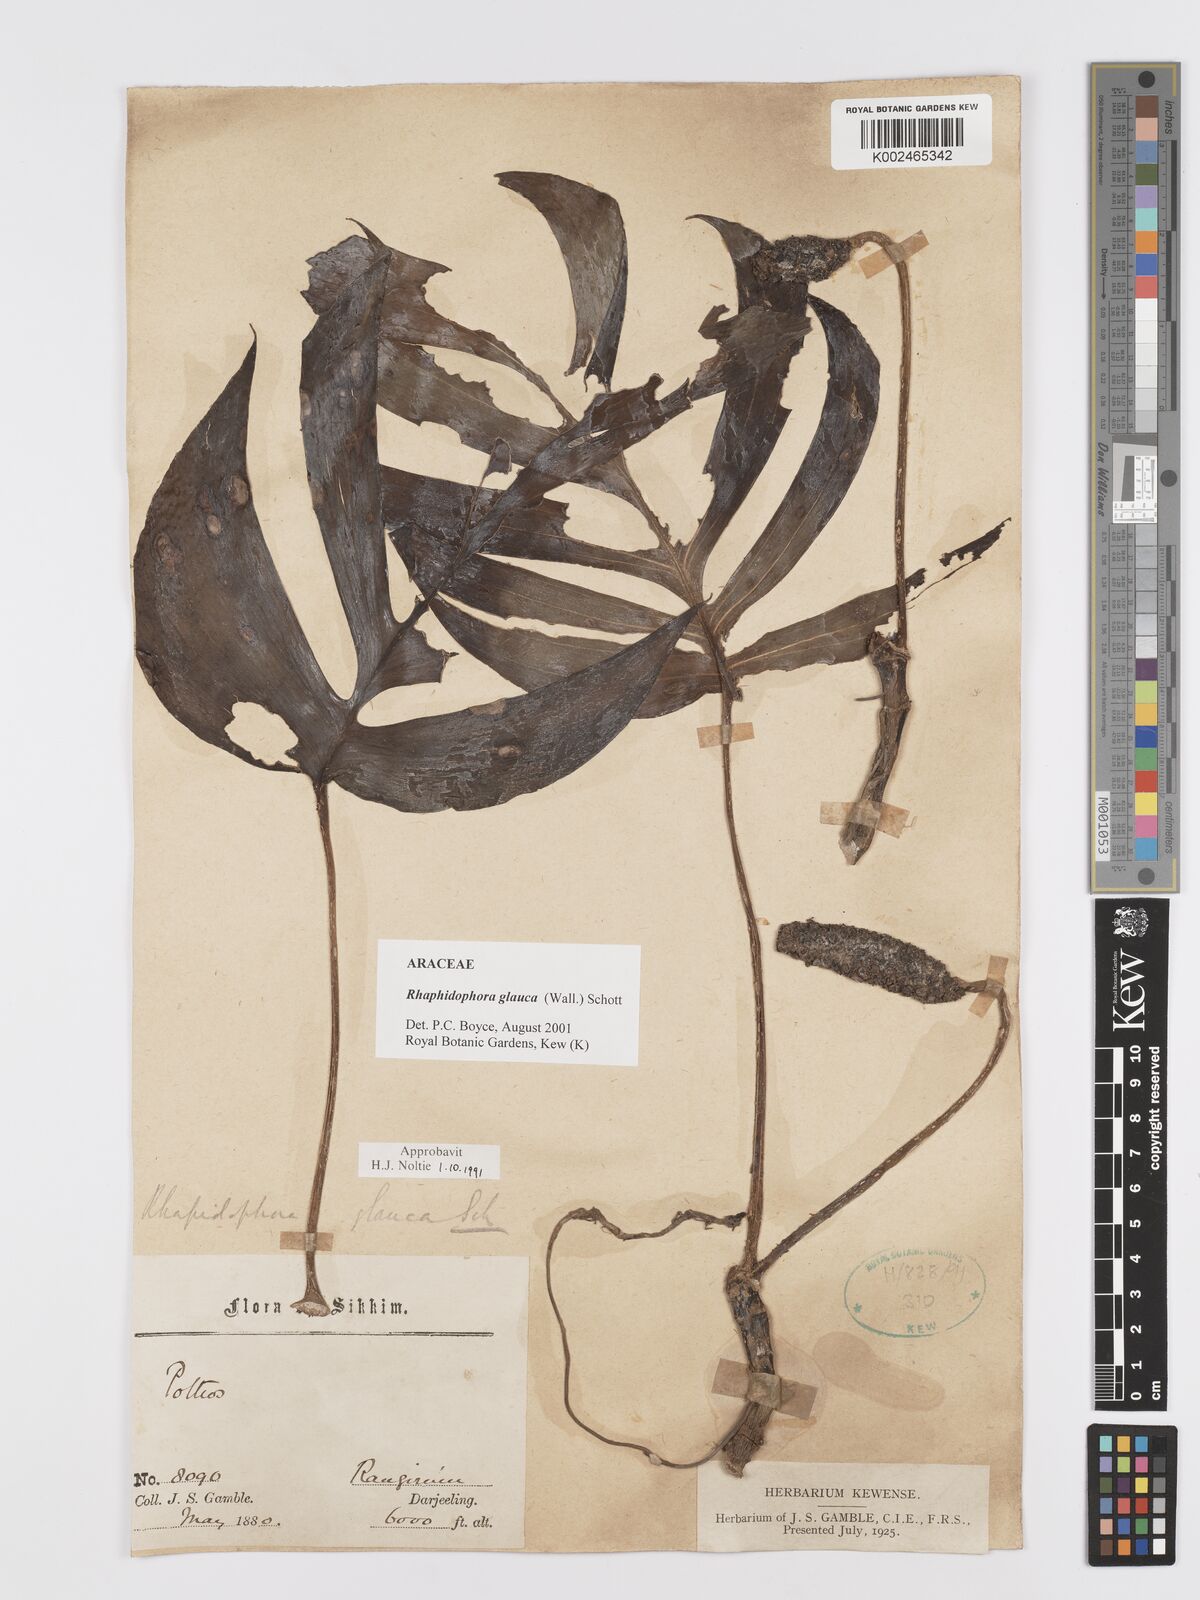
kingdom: Plantae
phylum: Tracheophyta
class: Liliopsida
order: Alismatales
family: Araceae
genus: Rhaphidophora
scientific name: Rhaphidophora glauca
